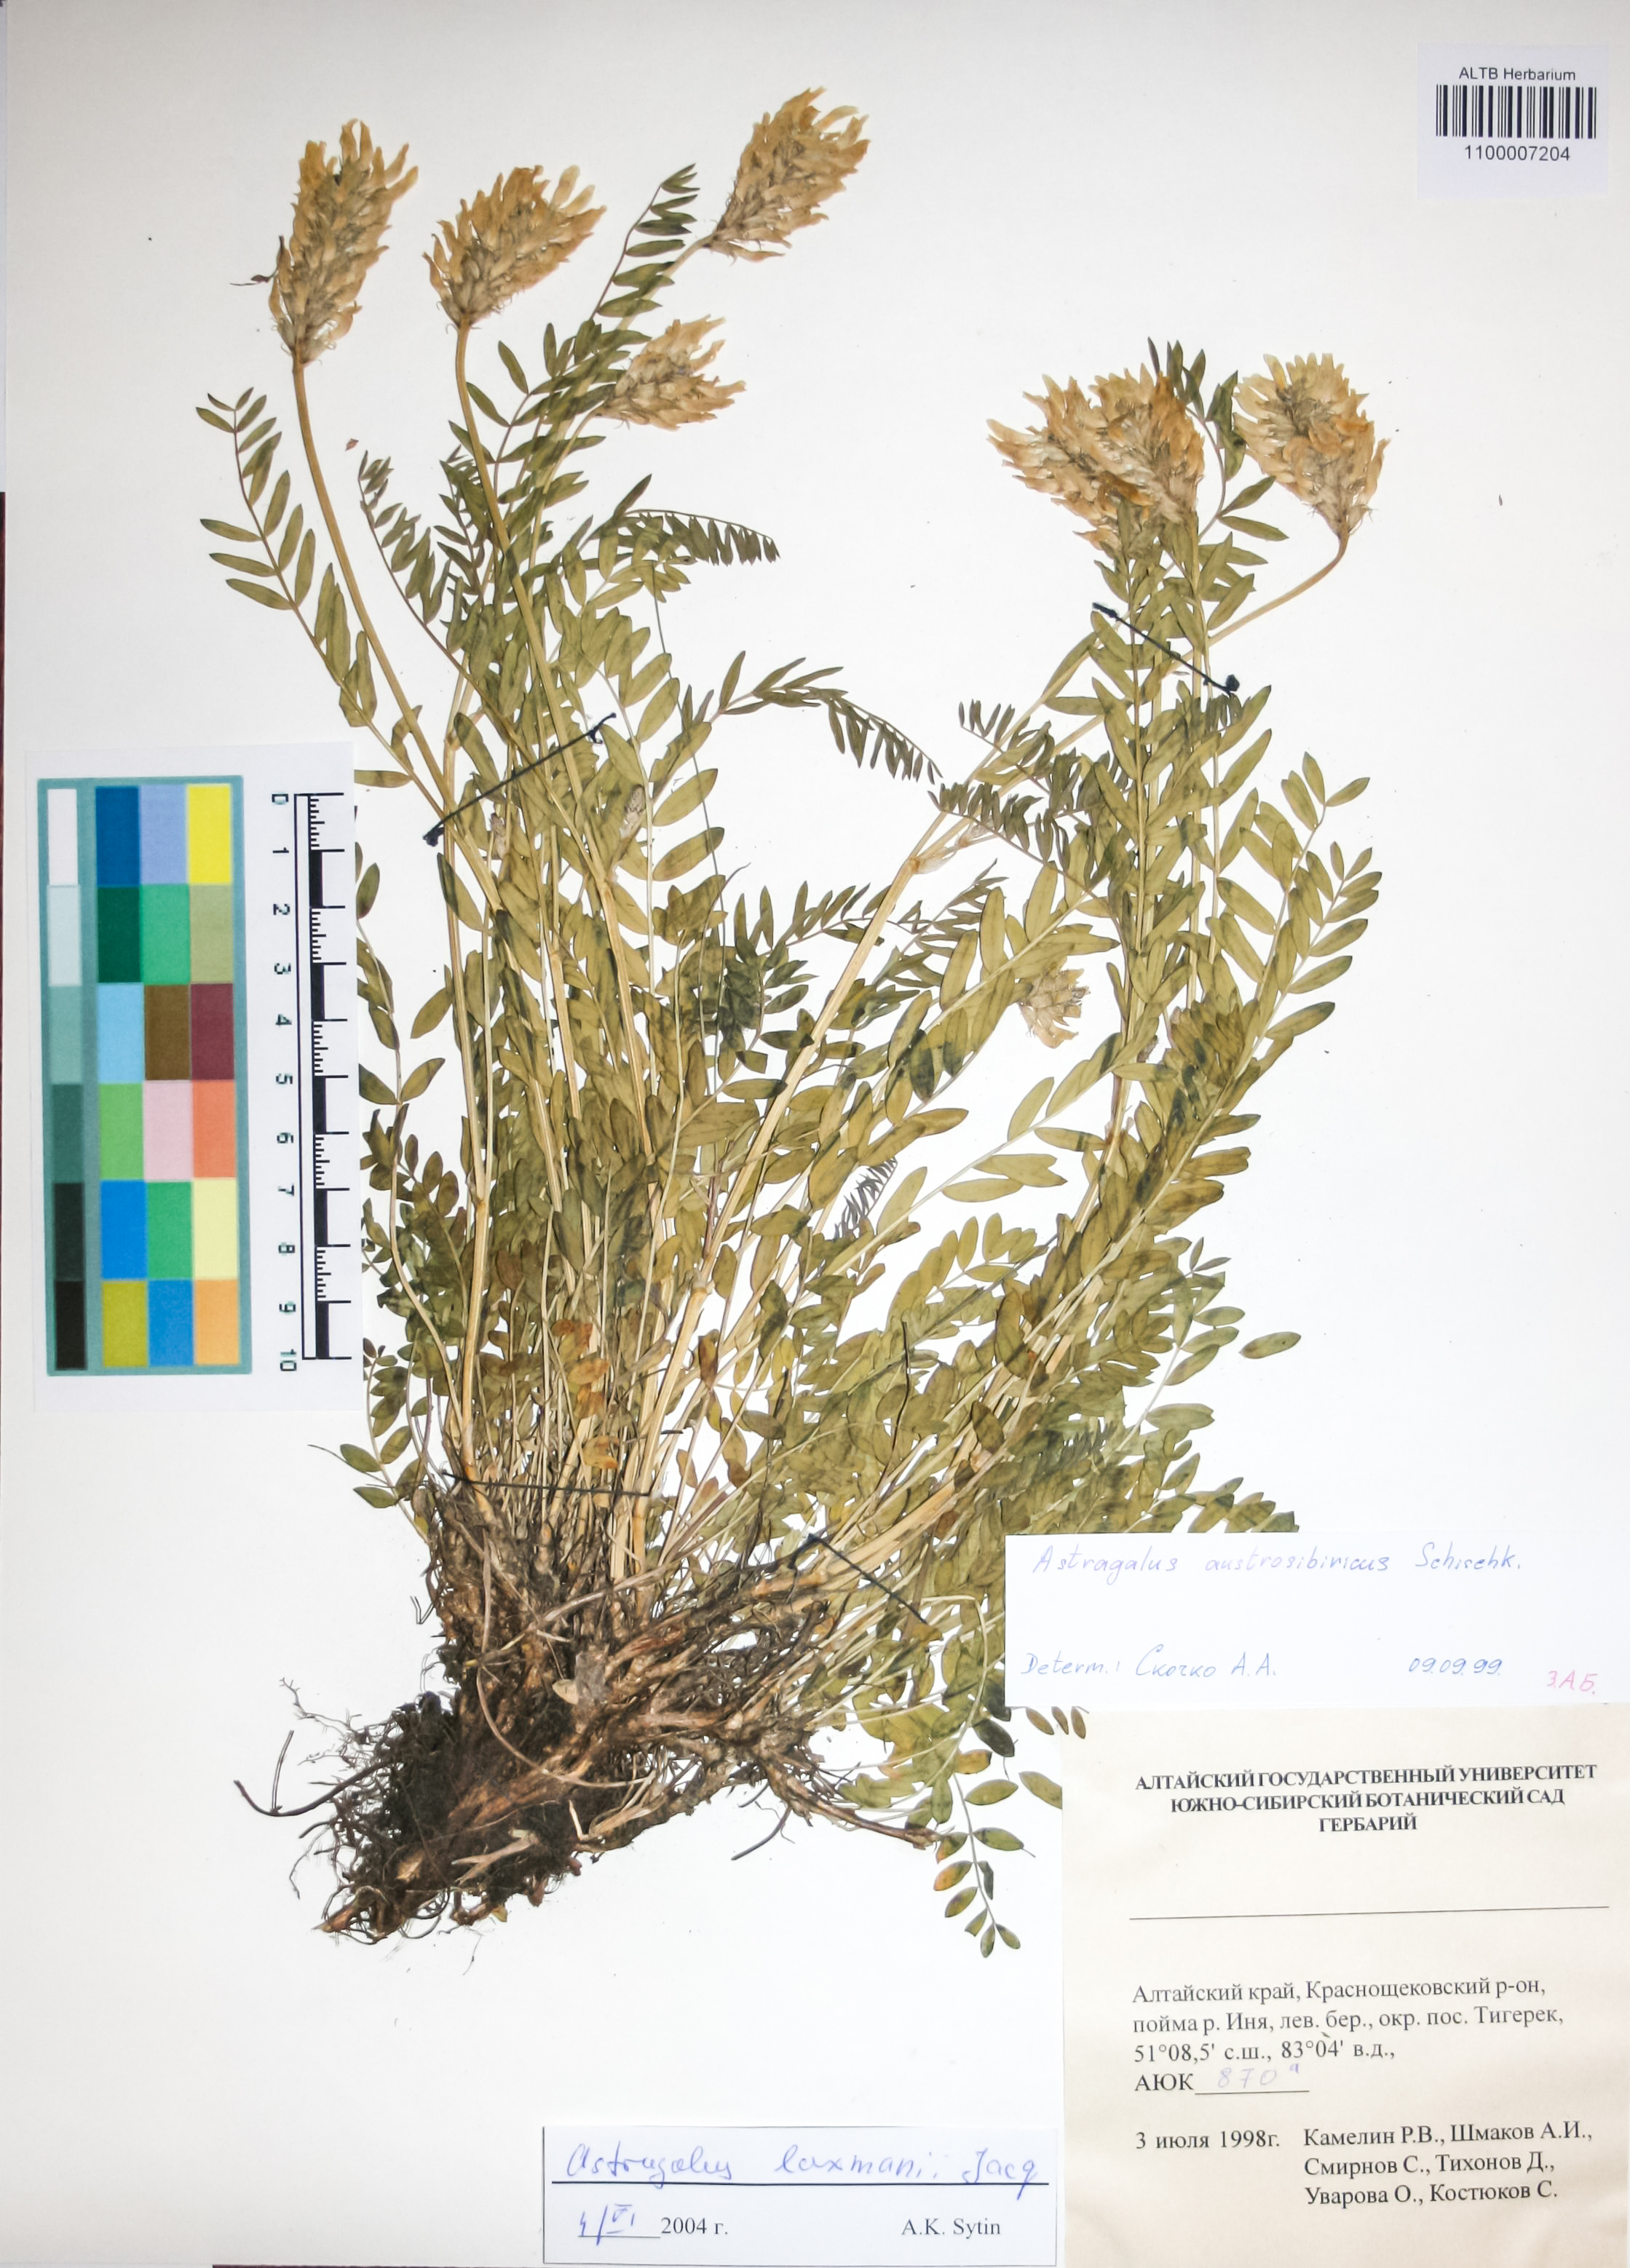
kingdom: Plantae
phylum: Tracheophyta
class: Magnoliopsida
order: Fabales
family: Fabaceae
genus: Astragalus
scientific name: Astragalus laxmannii
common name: Laxmann's milk-vetch
